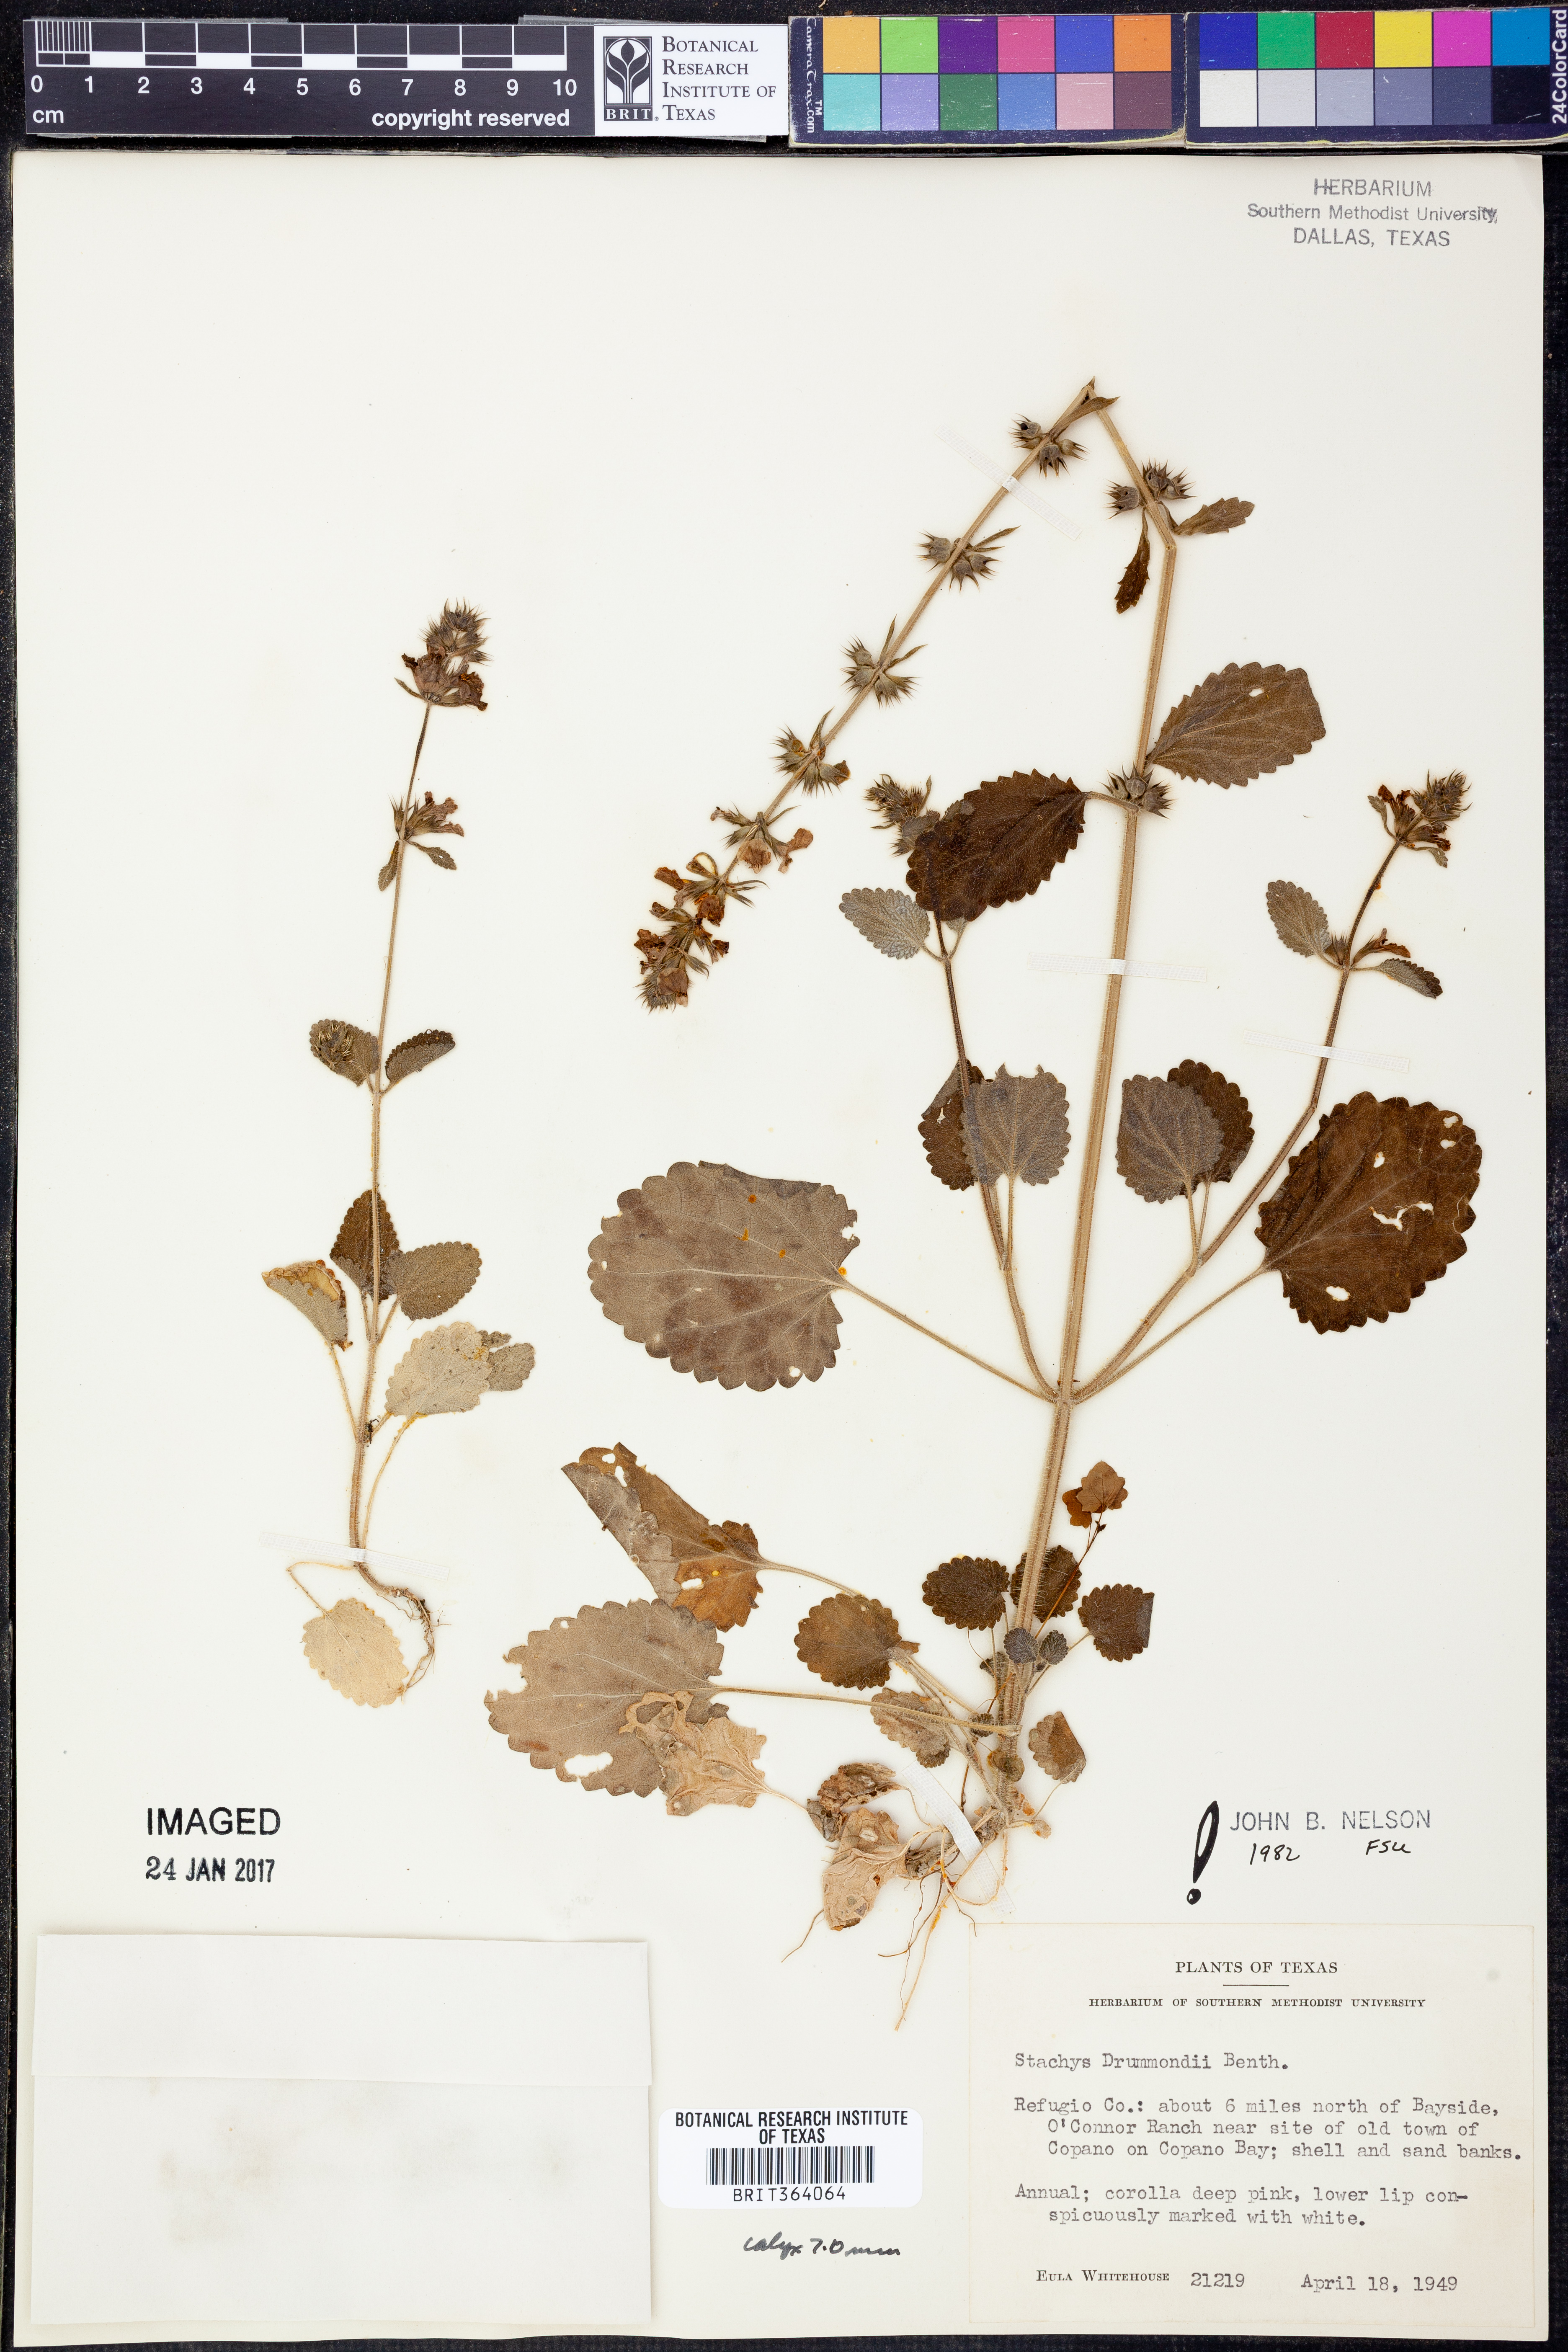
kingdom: Plantae
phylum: Tracheophyta
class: Magnoliopsida
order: Lamiales
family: Lamiaceae
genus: Stachys
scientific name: Stachys drummondii
